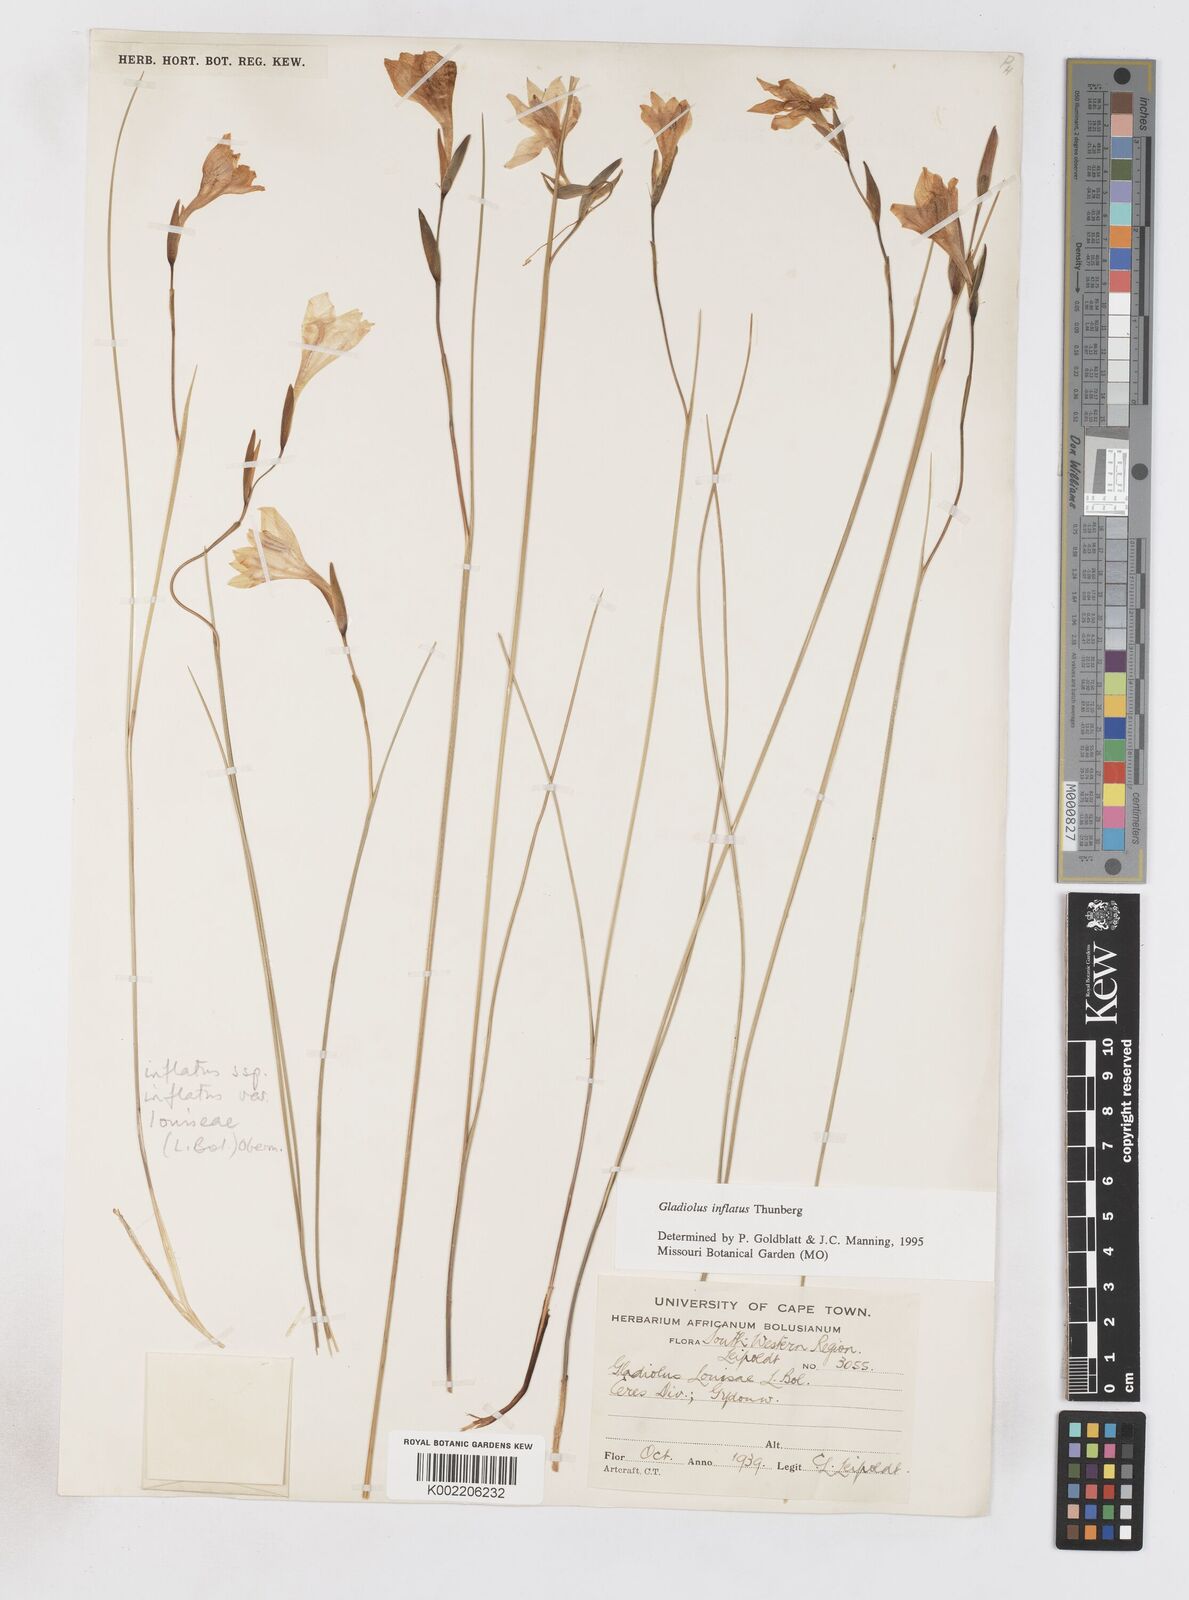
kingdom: Plantae
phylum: Tracheophyta
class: Liliopsida
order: Asparagales
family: Iridaceae
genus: Gladiolus
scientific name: Gladiolus inflatus
